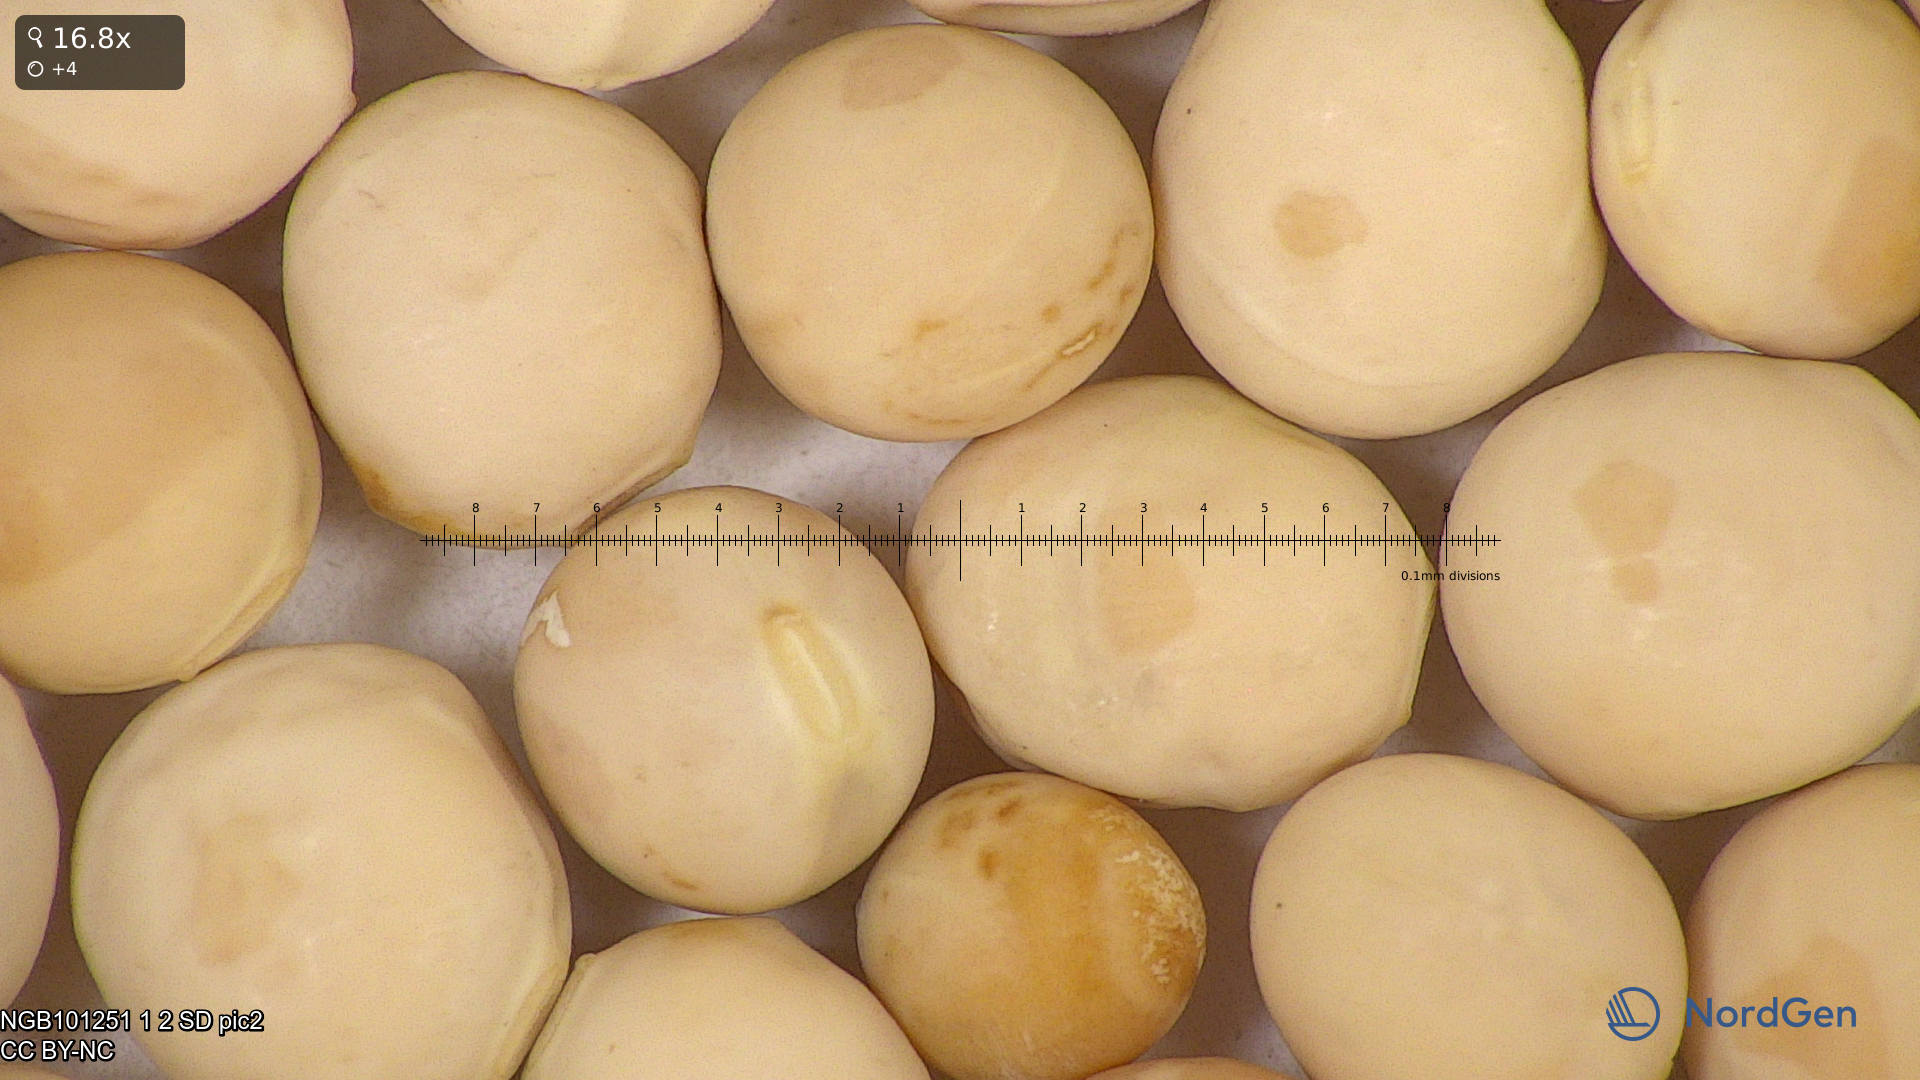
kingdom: Plantae
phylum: Tracheophyta
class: Magnoliopsida
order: Fabales
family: Fabaceae
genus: Lathyrus
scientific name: Lathyrus oleraceus
